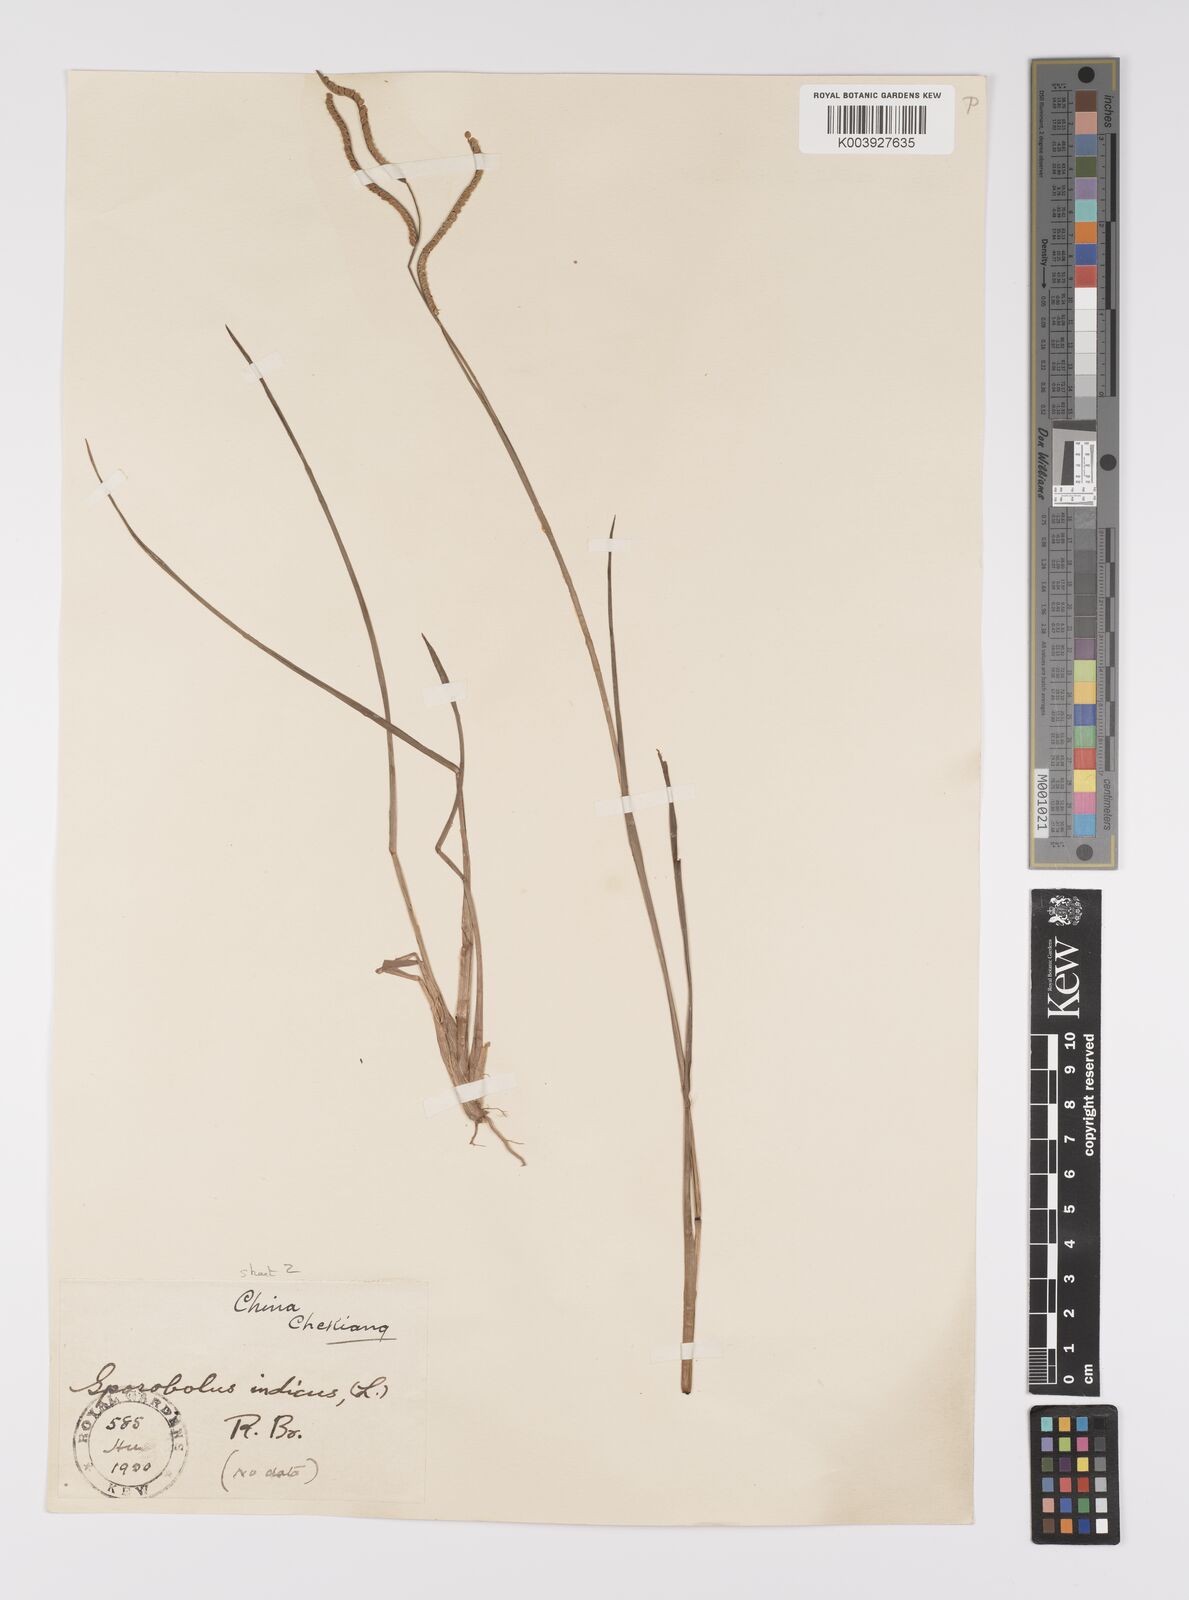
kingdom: Plantae
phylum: Tracheophyta
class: Liliopsida
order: Poales
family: Poaceae
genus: Paspalum
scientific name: Paspalum orbiculare
